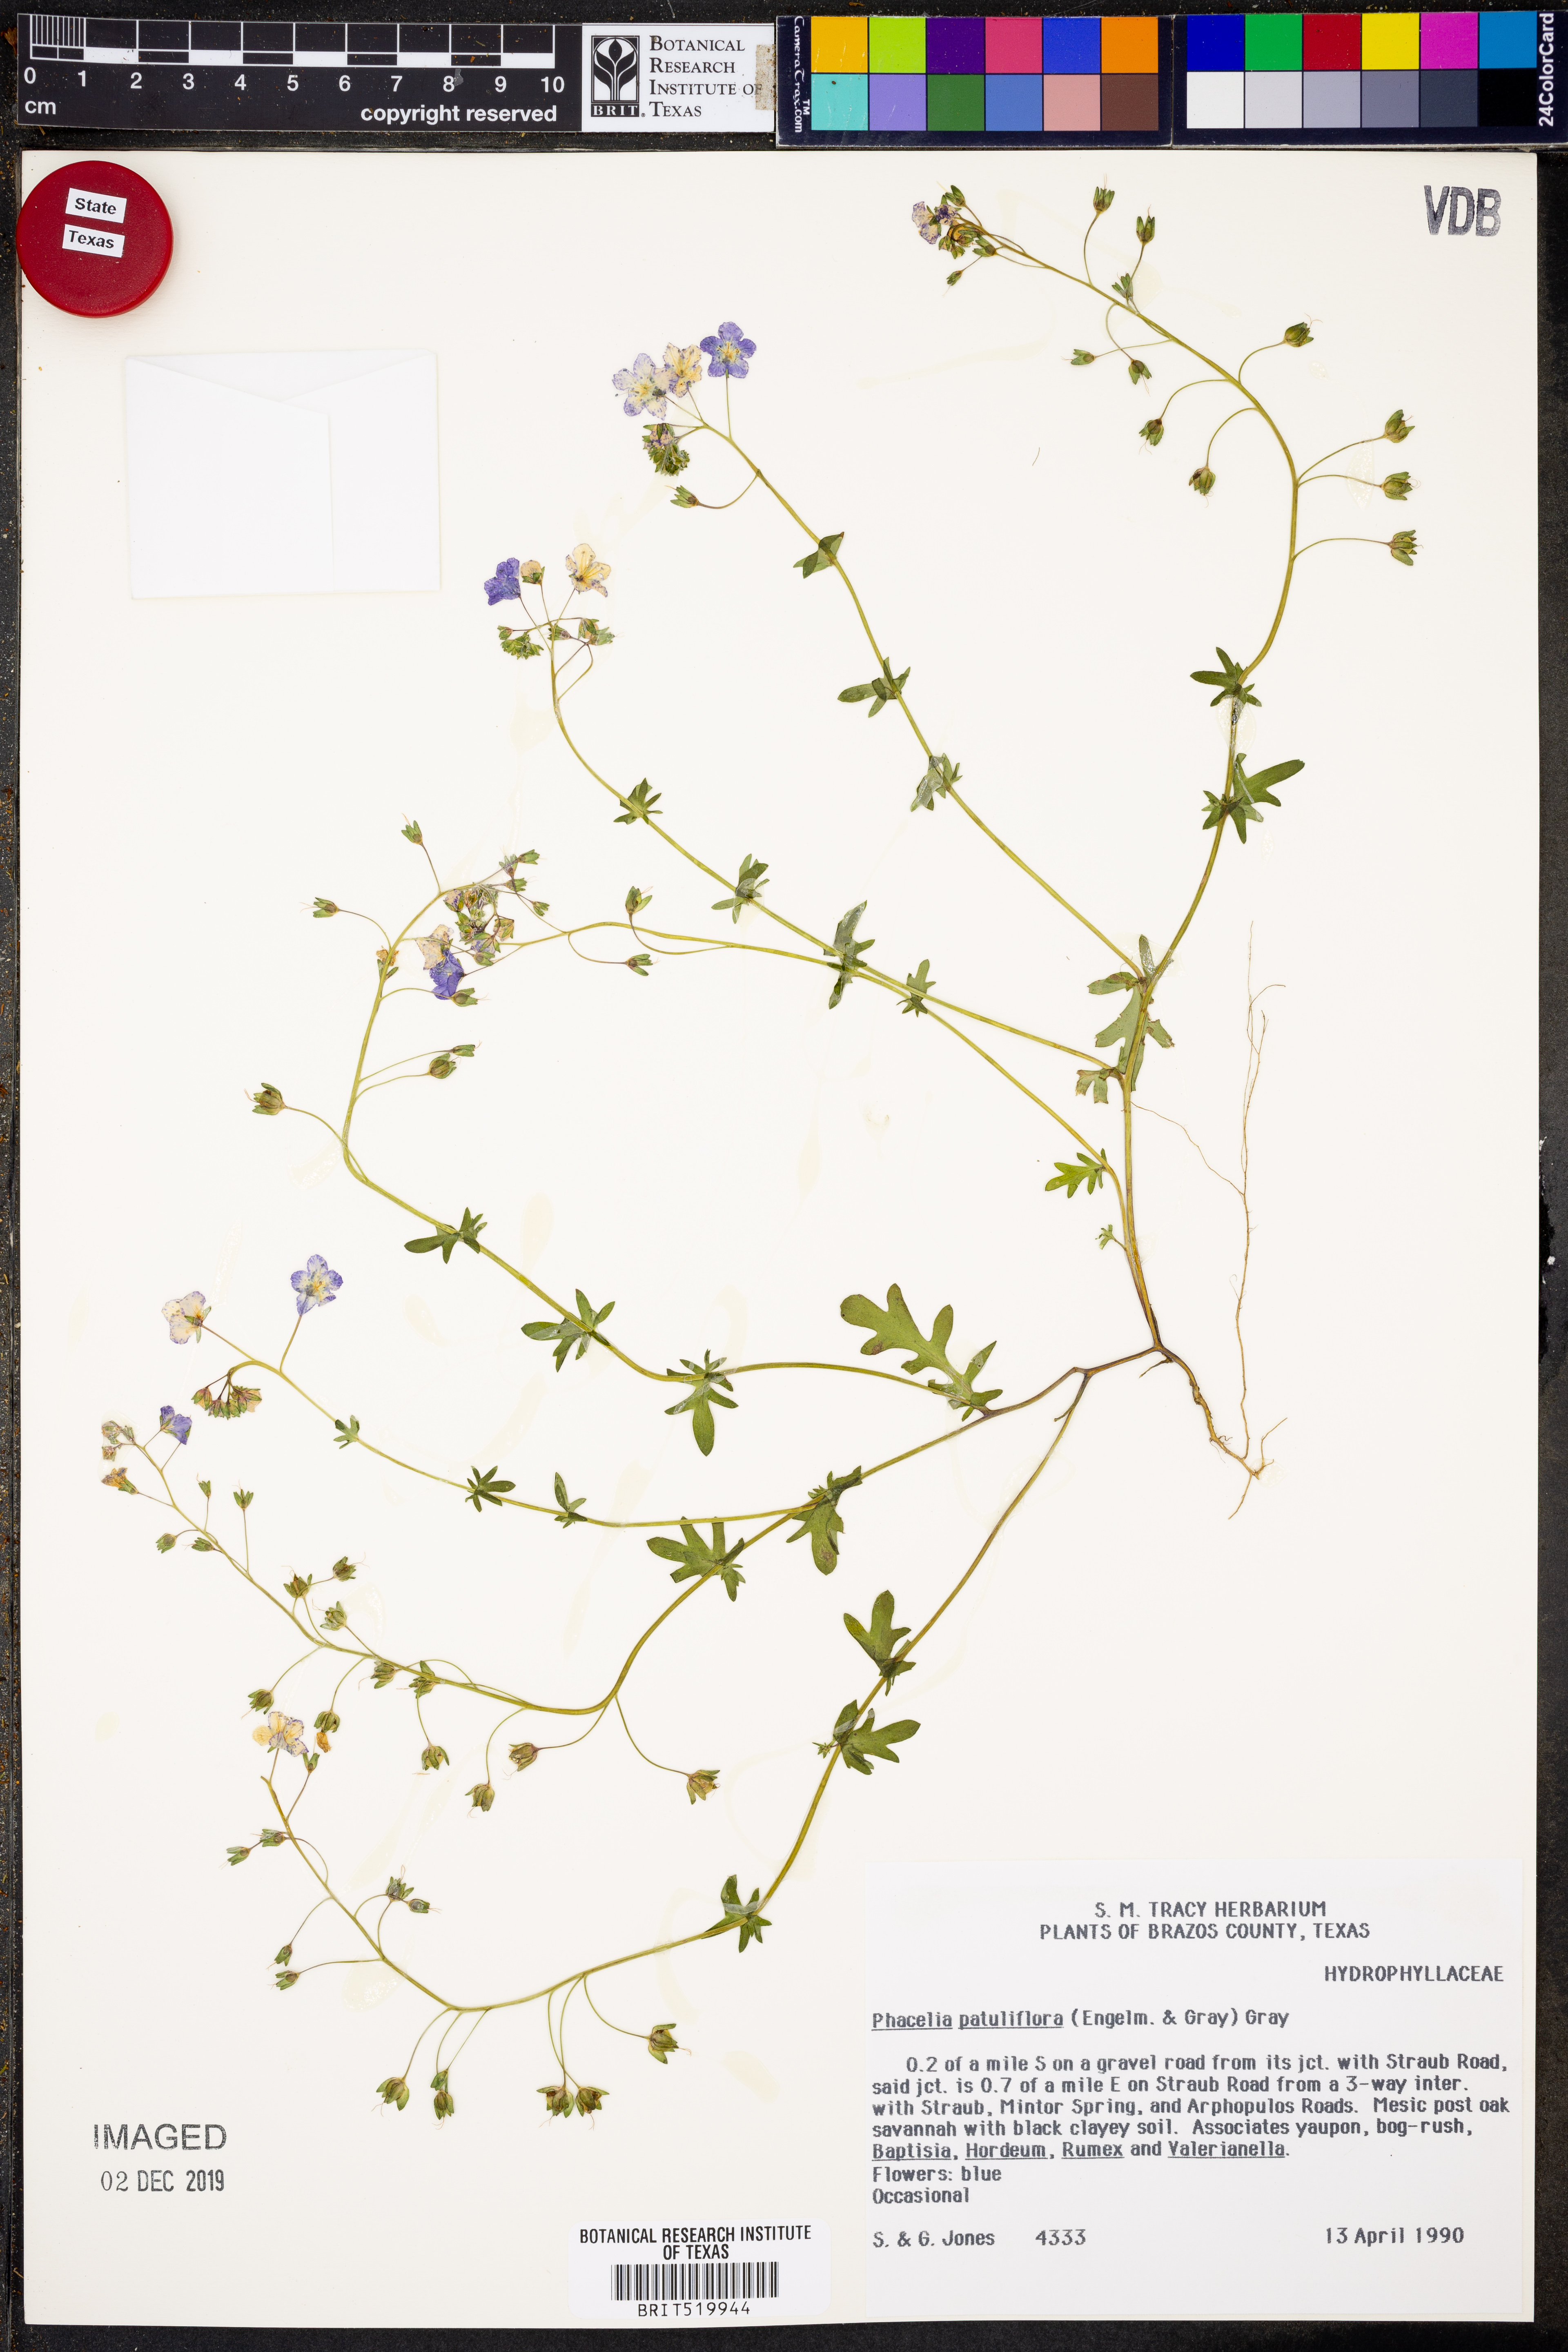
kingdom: Plantae
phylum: Tracheophyta
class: Magnoliopsida
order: Boraginales
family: Hydrophyllaceae
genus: Phacelia
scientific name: Phacelia patuliflora
